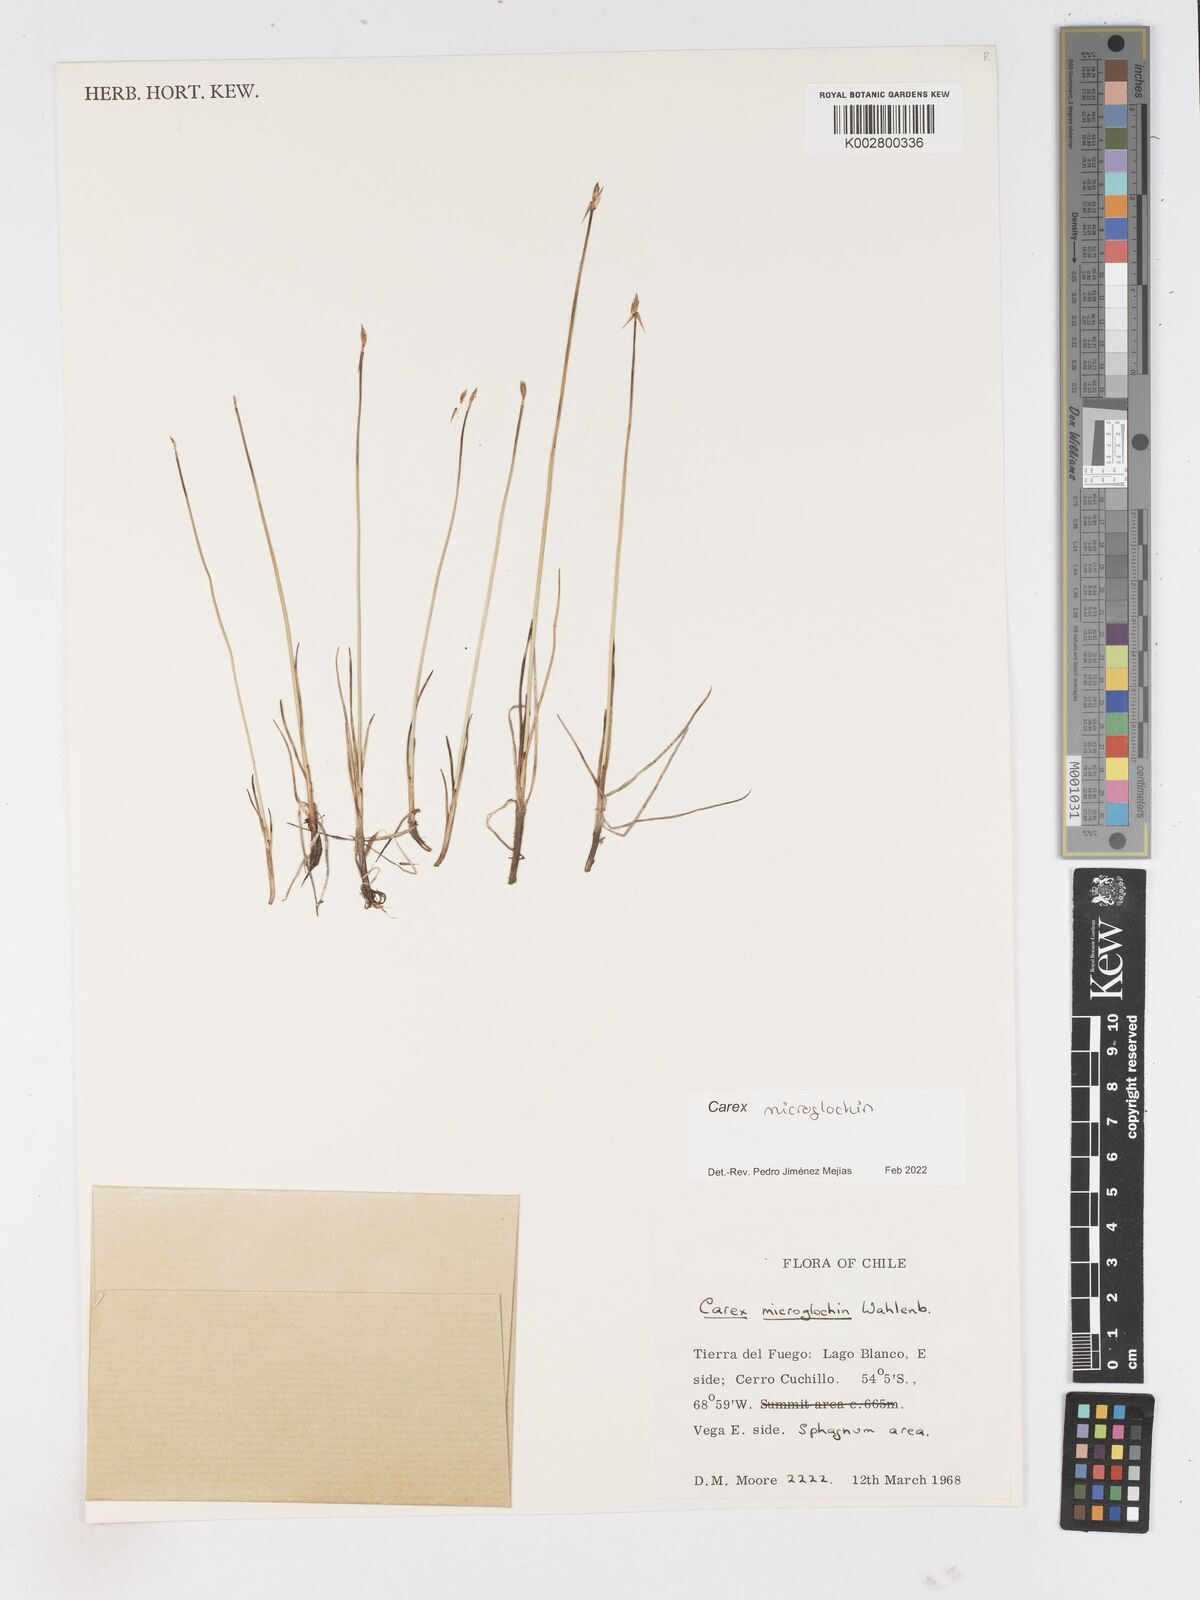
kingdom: Plantae
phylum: Tracheophyta
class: Liliopsida
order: Poales
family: Cyperaceae
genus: Carex
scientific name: Carex microglochin
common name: Bristle sedge
